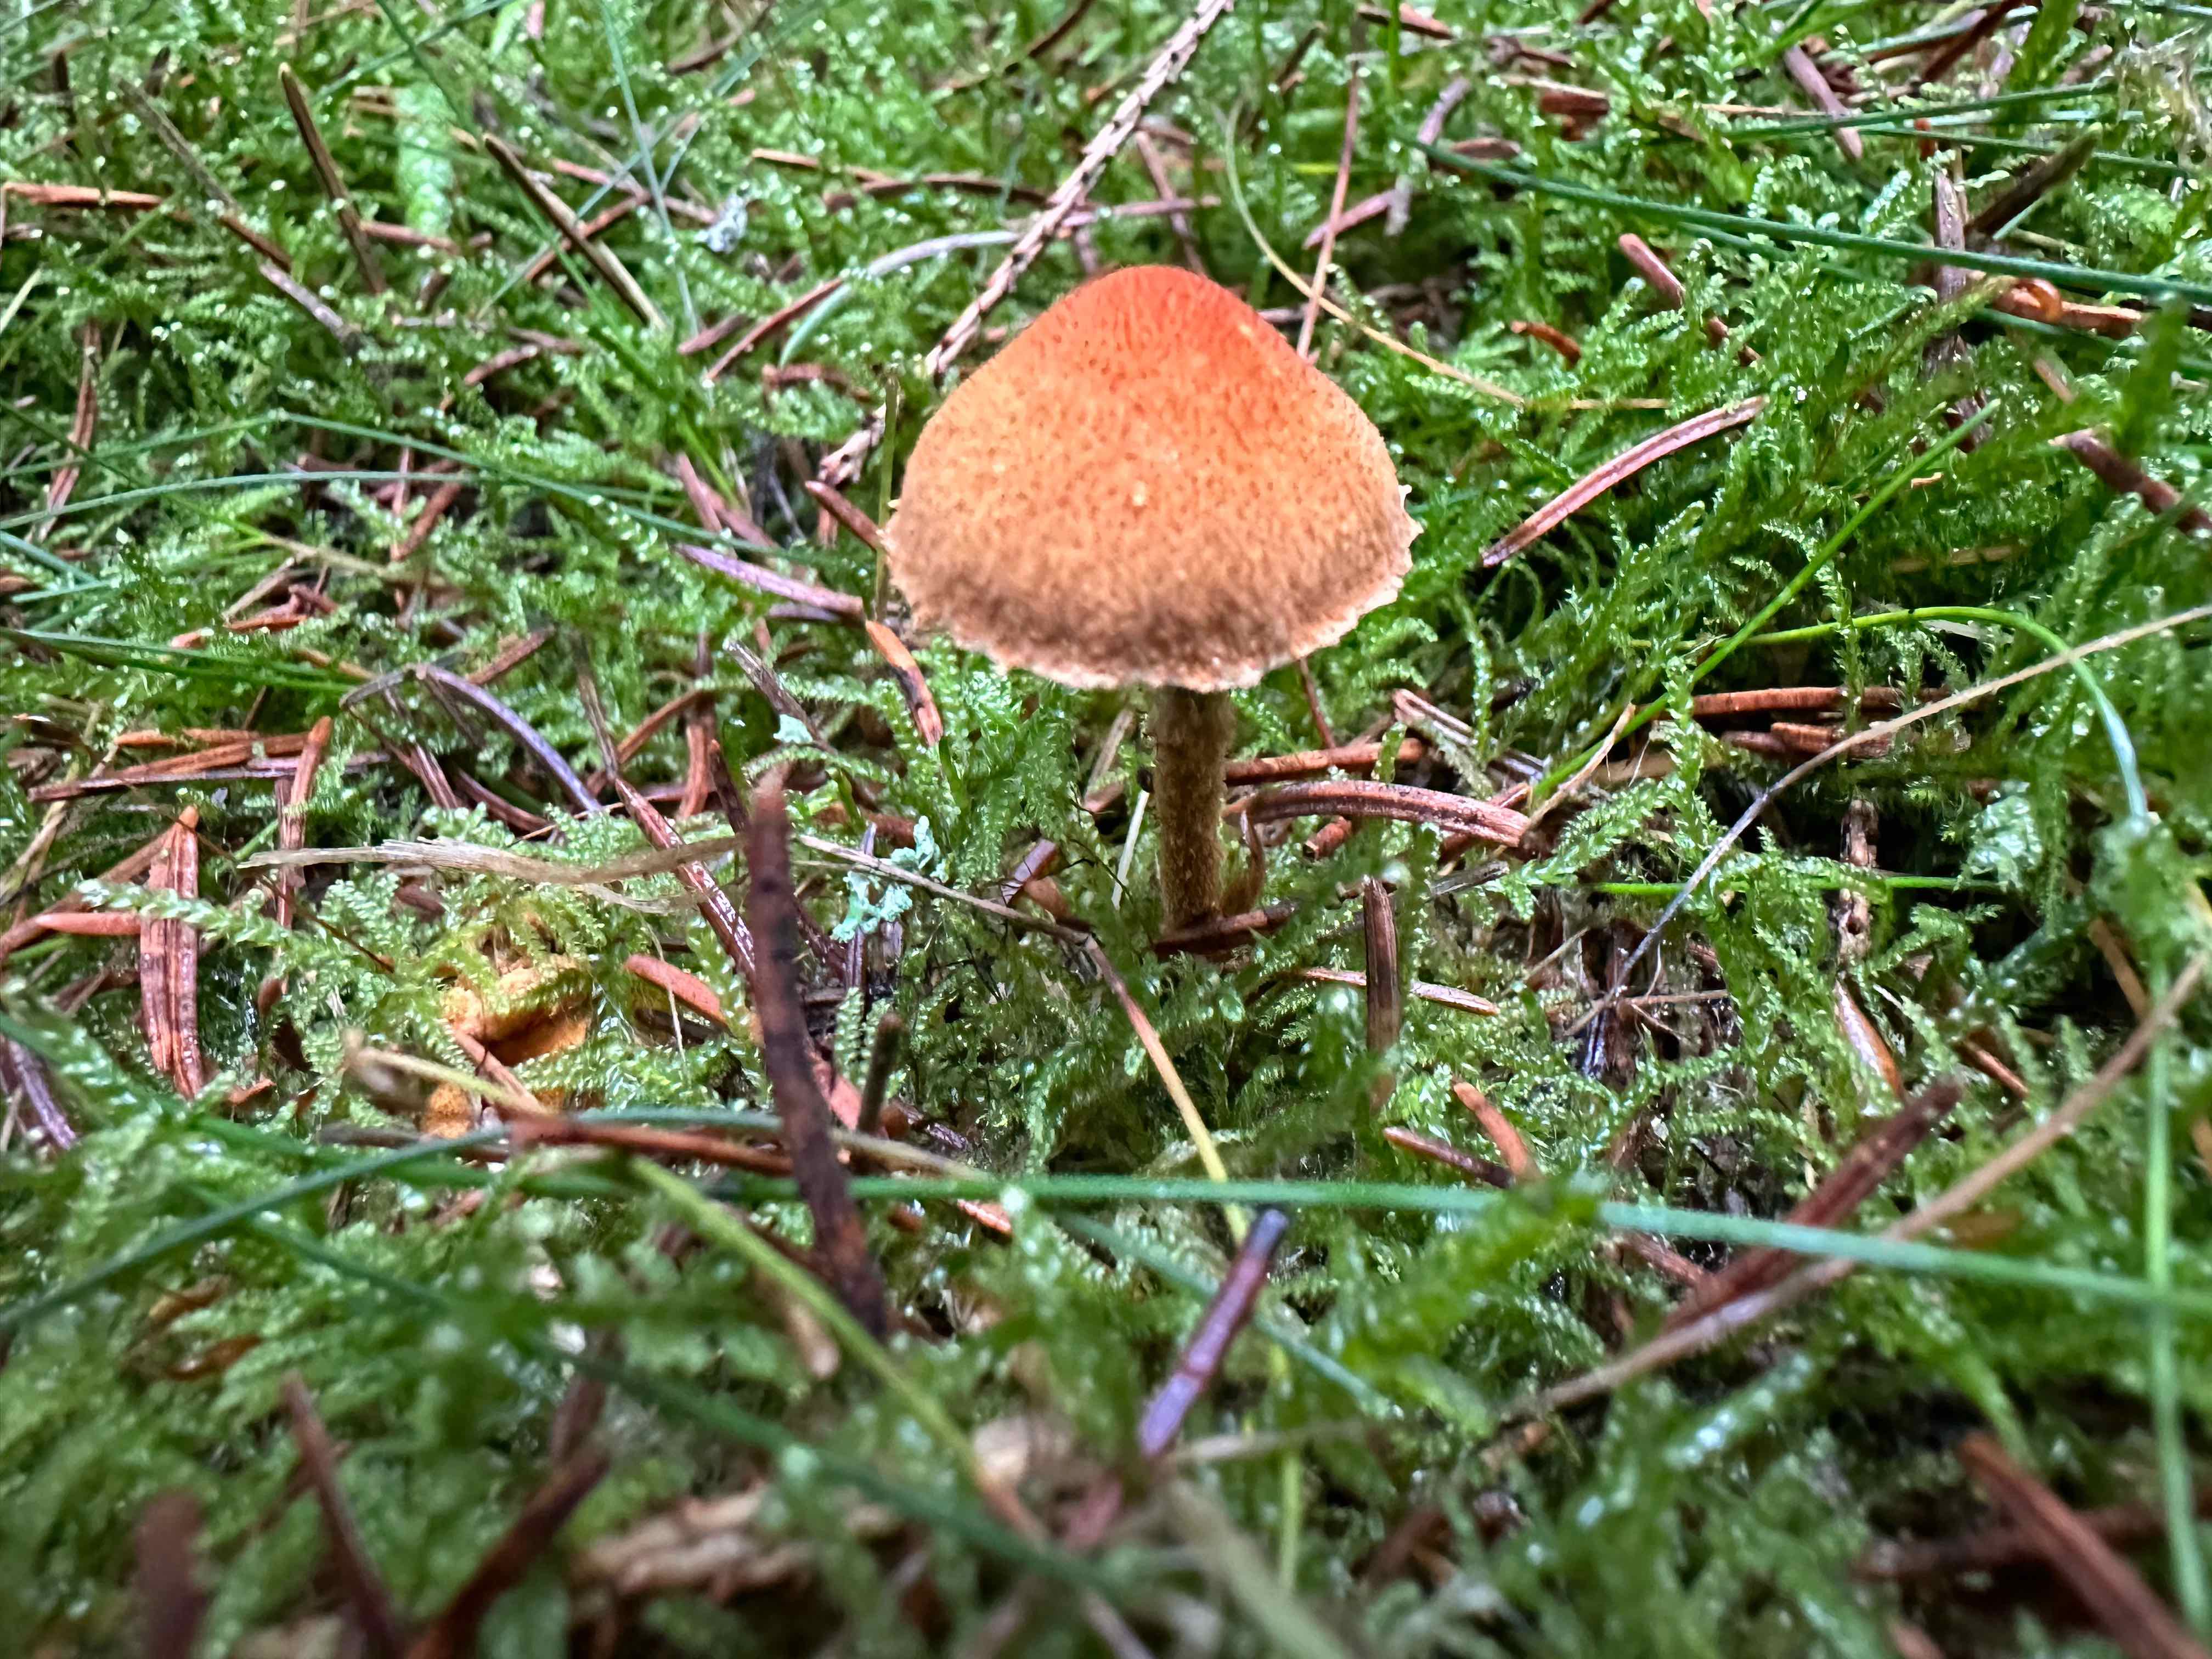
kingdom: Fungi
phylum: Basidiomycota
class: Agaricomycetes
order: Agaricales
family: Tricholomataceae
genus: Cystoderma
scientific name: Cystoderma jasonis
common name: gulkødet grynhat
